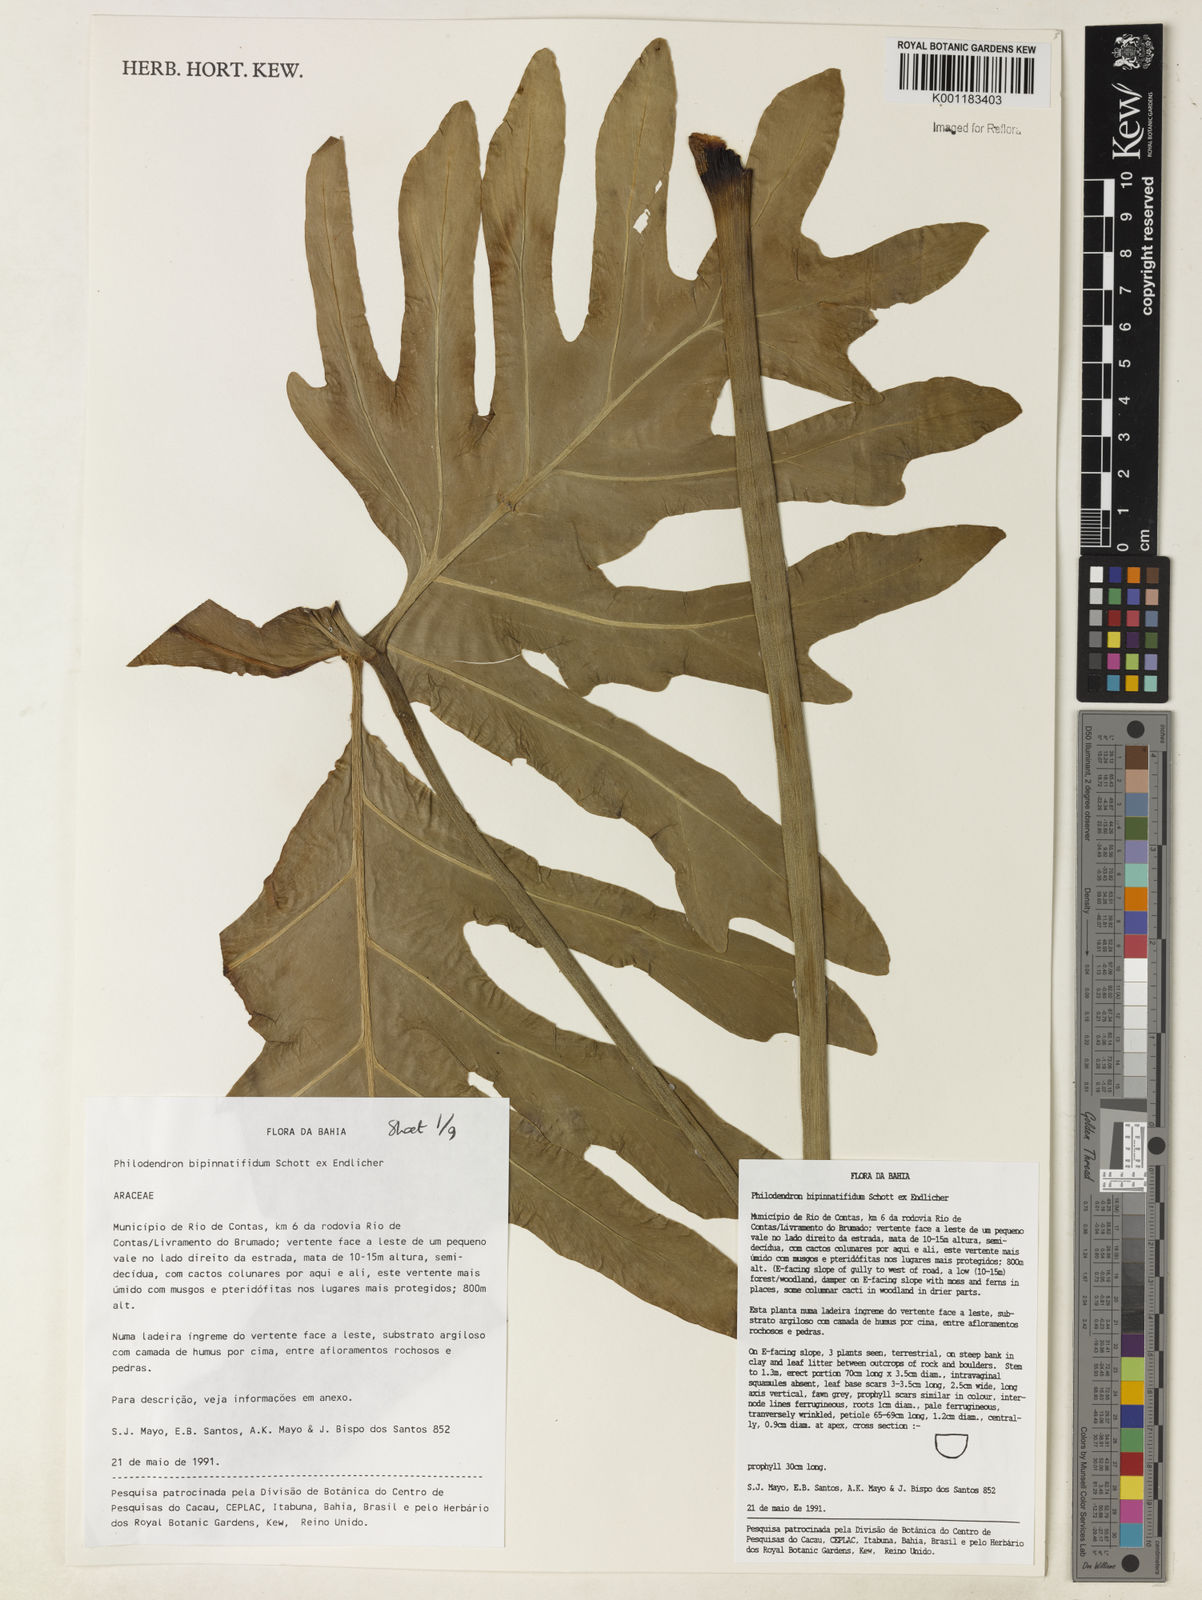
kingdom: Plantae
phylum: Tracheophyta
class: Liliopsida
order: Alismatales
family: Araceae
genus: Philodendron
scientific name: Philodendron
